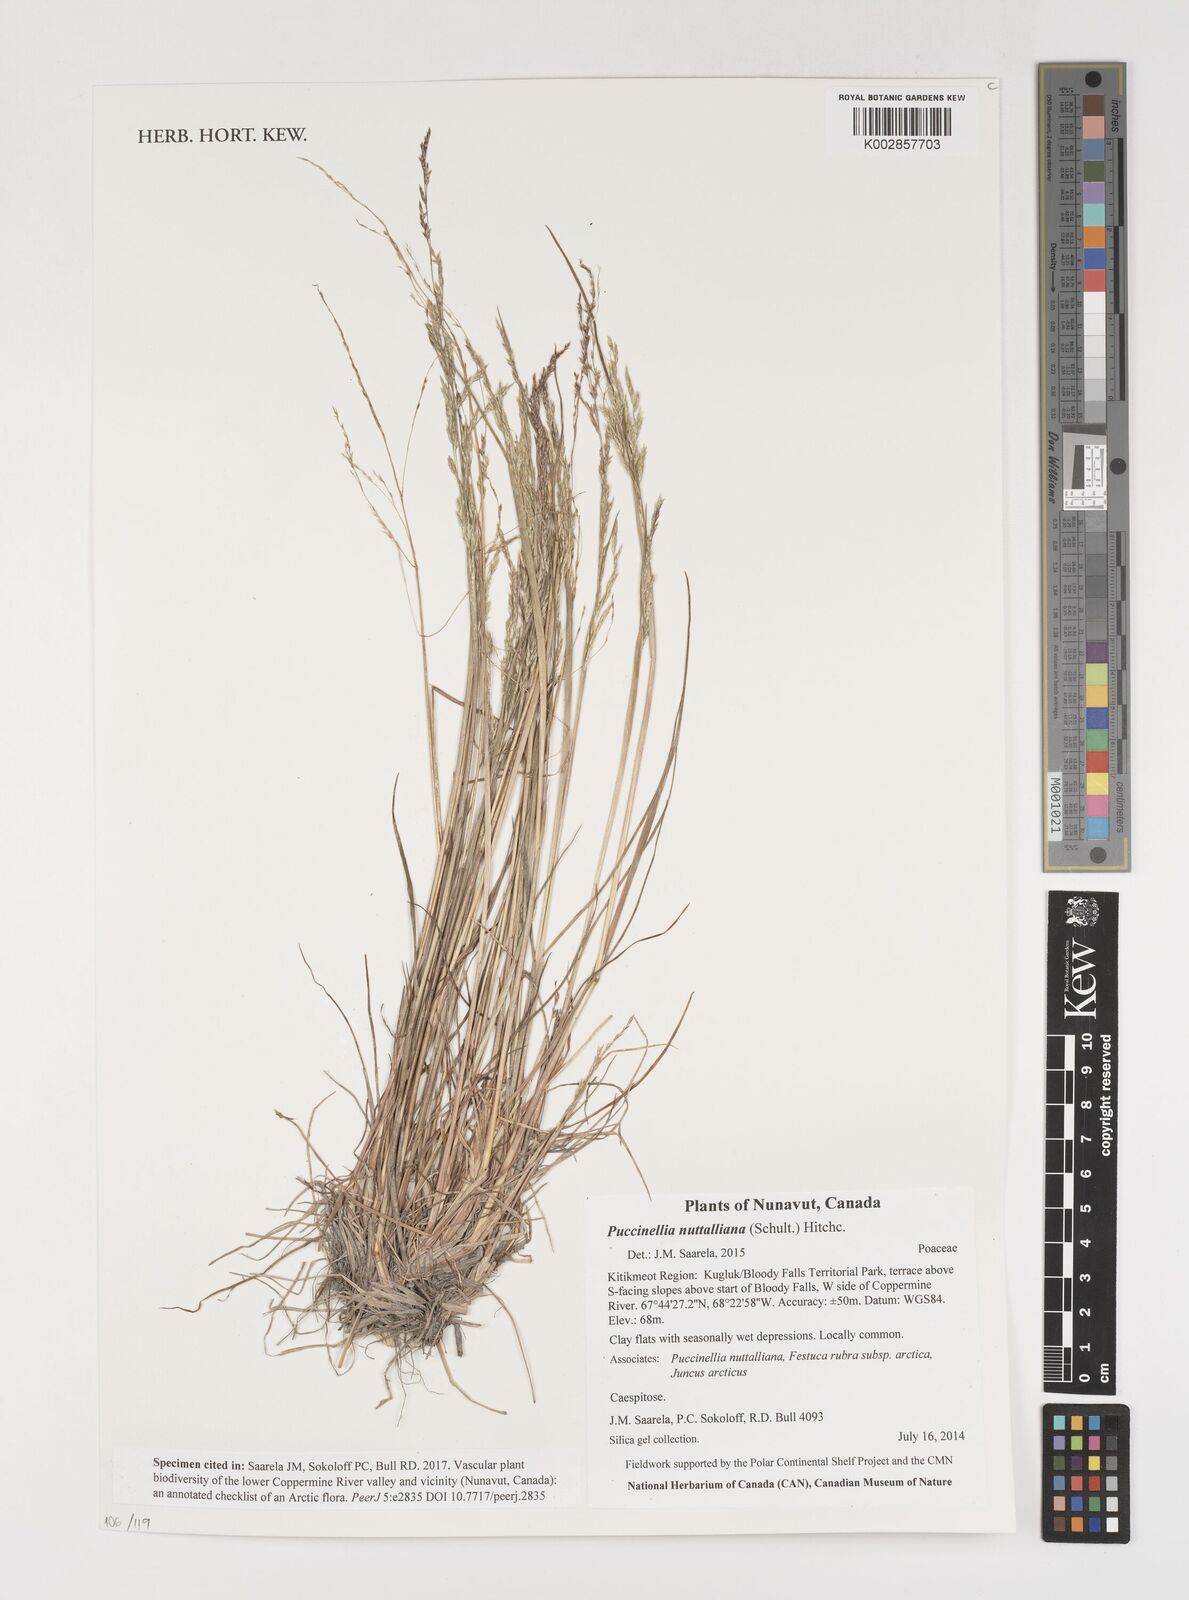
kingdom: Plantae
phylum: Tracheophyta
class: Liliopsida
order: Poales
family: Poaceae
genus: Puccinellia
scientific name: Puccinellia nuttalliana
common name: Nuttall's alkali grass
